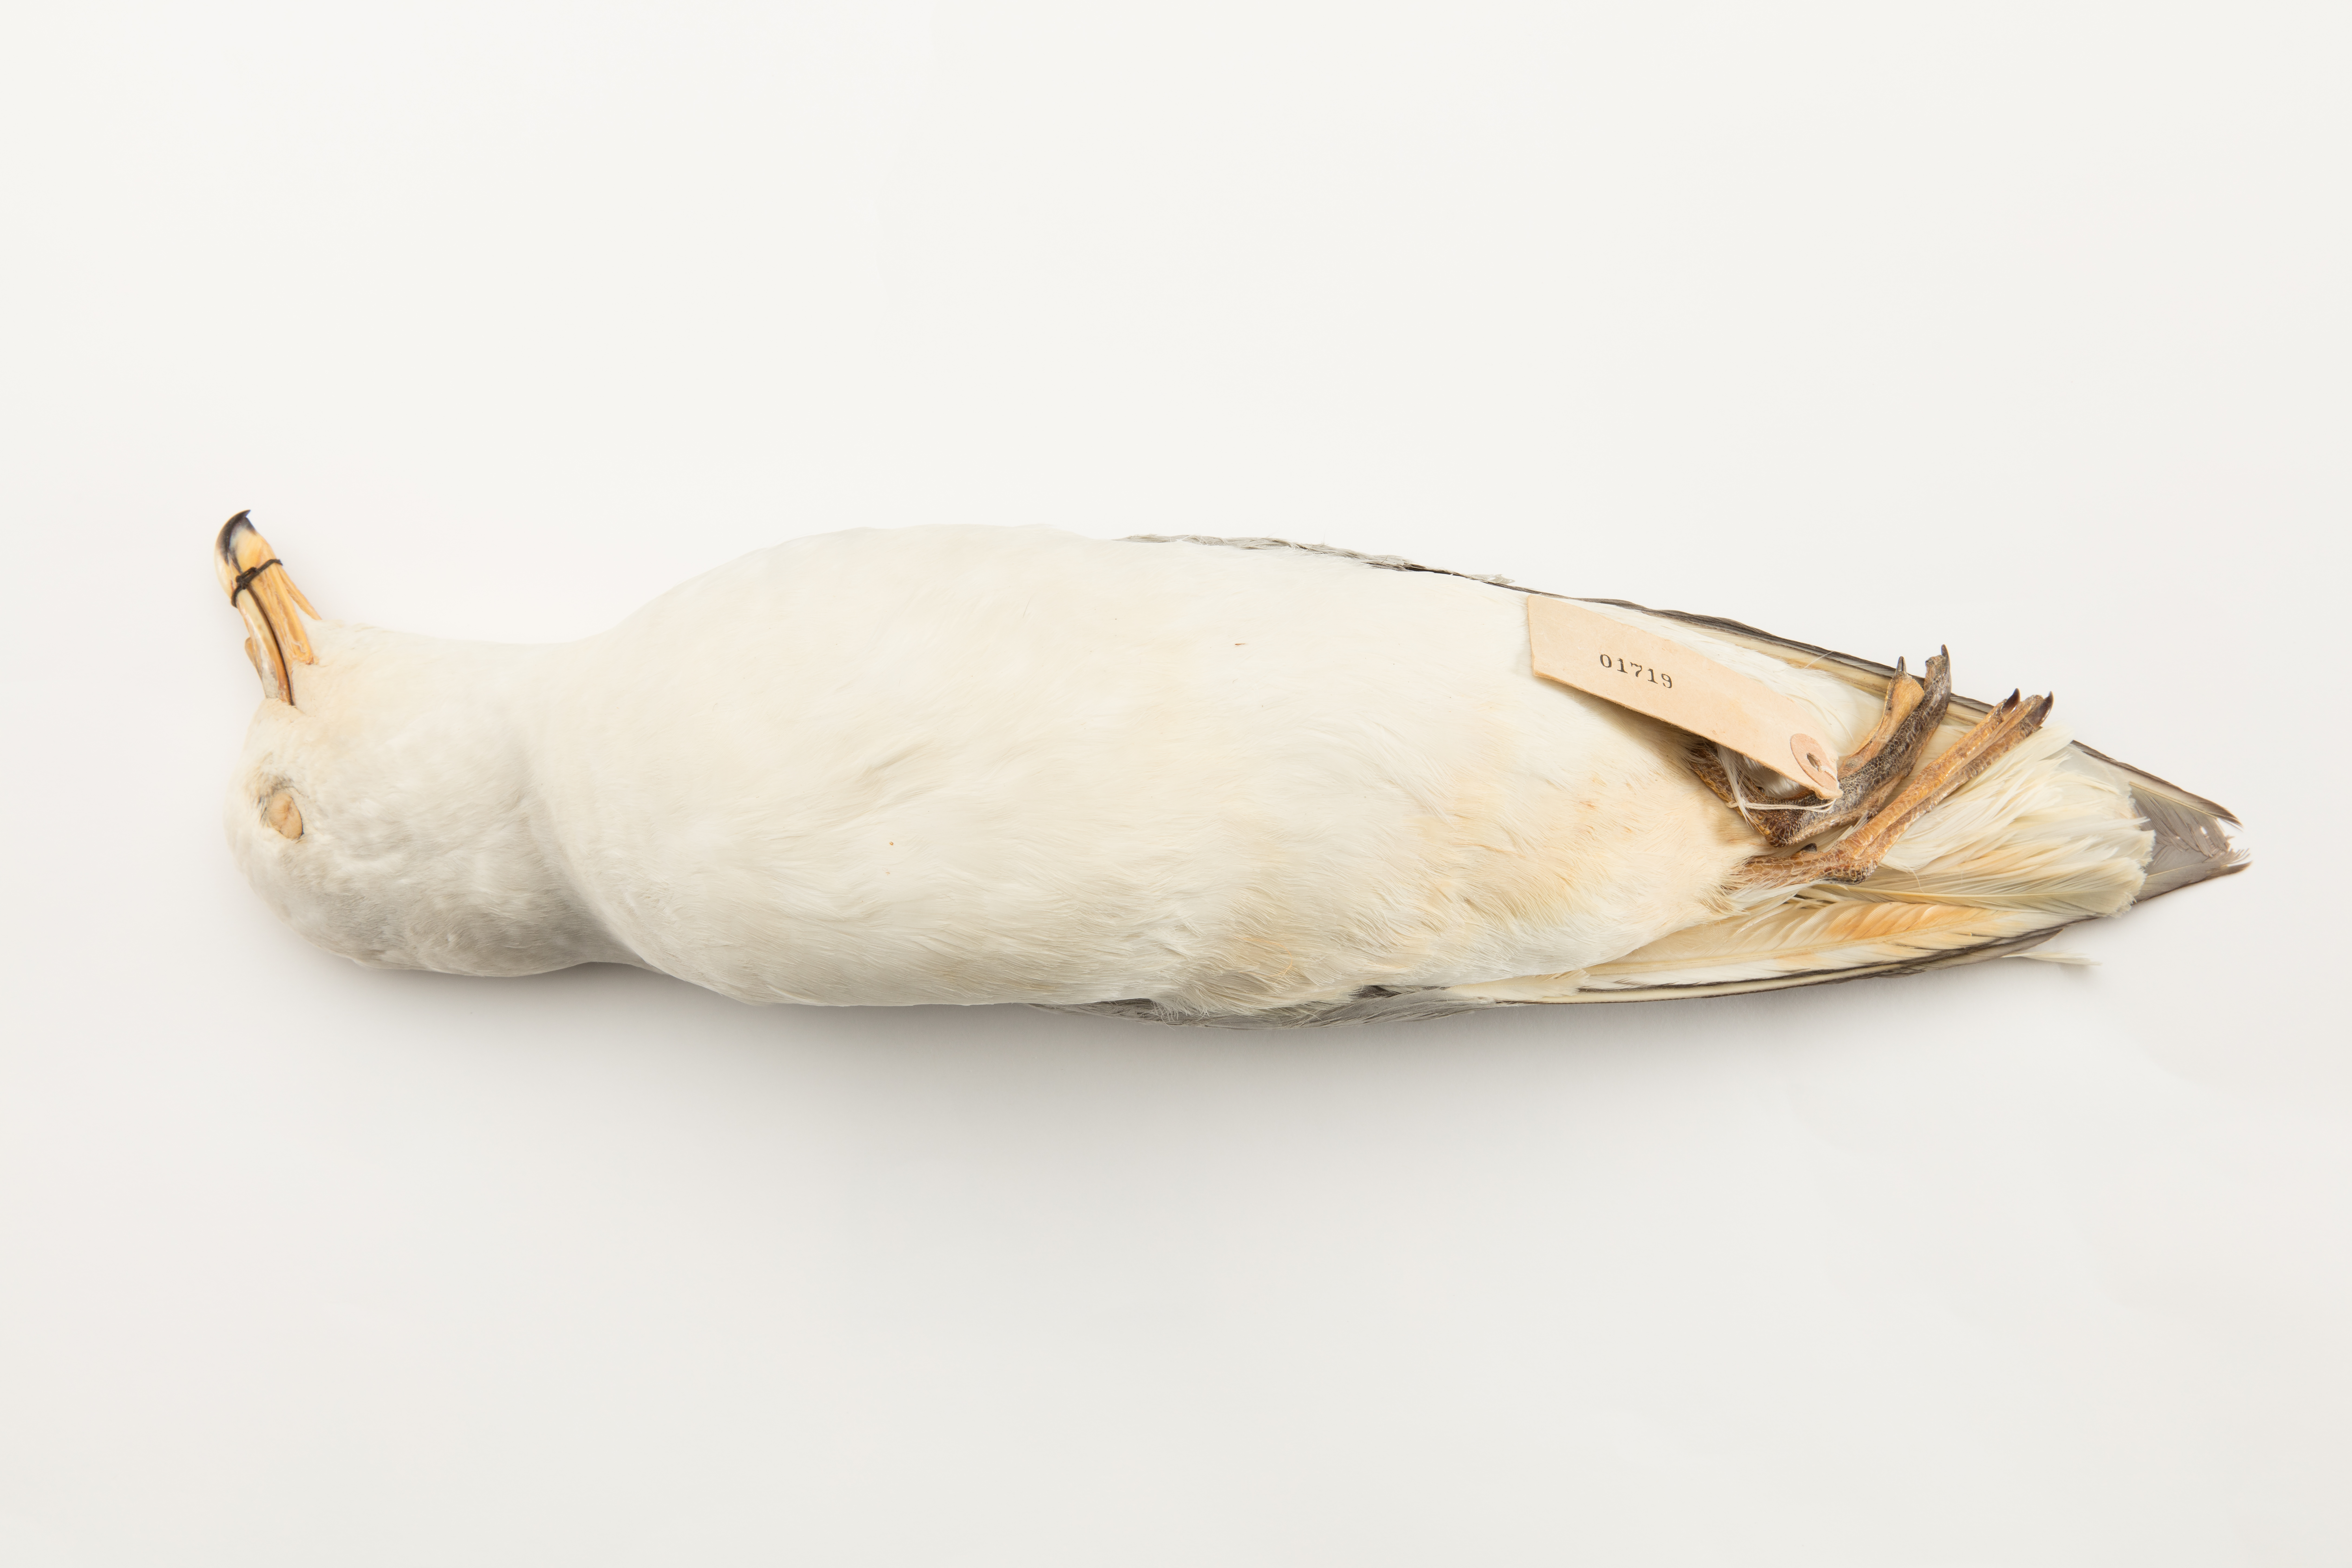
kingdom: Animalia
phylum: Chordata
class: Aves
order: Procellariiformes
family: Procellariidae
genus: Fulmarus
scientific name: Fulmarus glacialoides
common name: Southern fulmar
